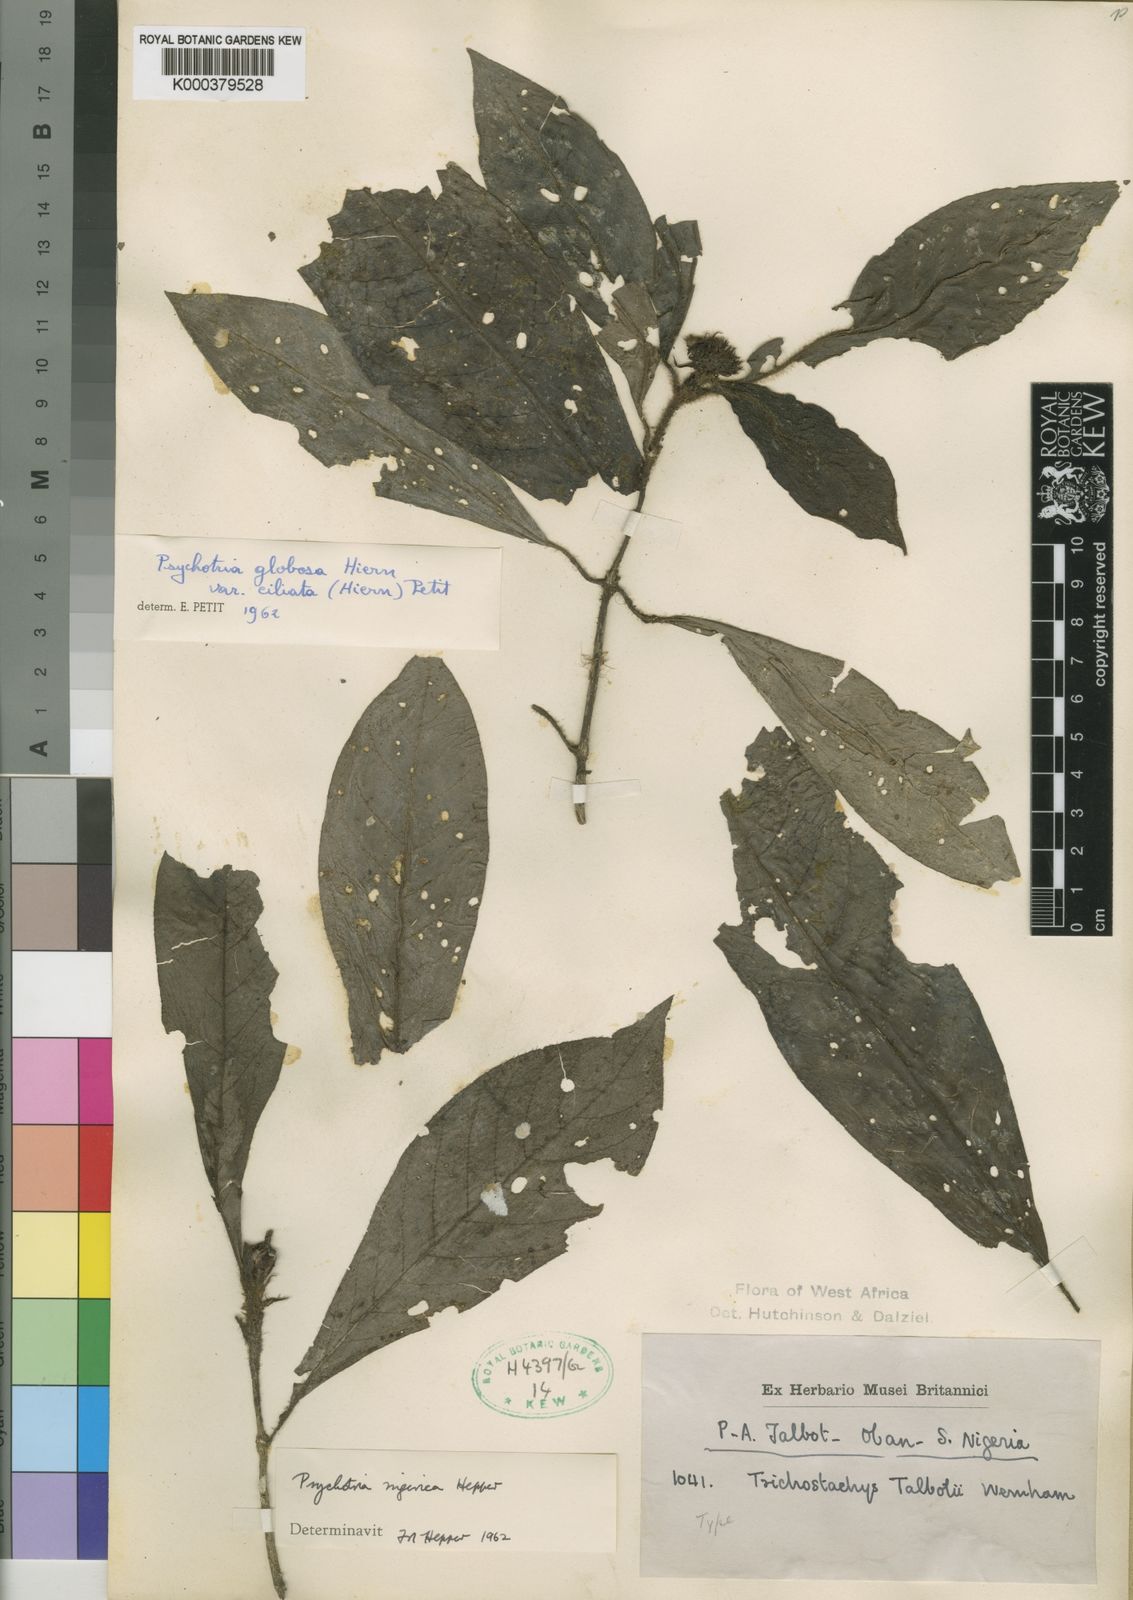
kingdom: Plantae
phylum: Tracheophyta
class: Magnoliopsida
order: Gentianales
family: Rubiaceae
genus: Psychotria
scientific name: Psychotria nigerica
